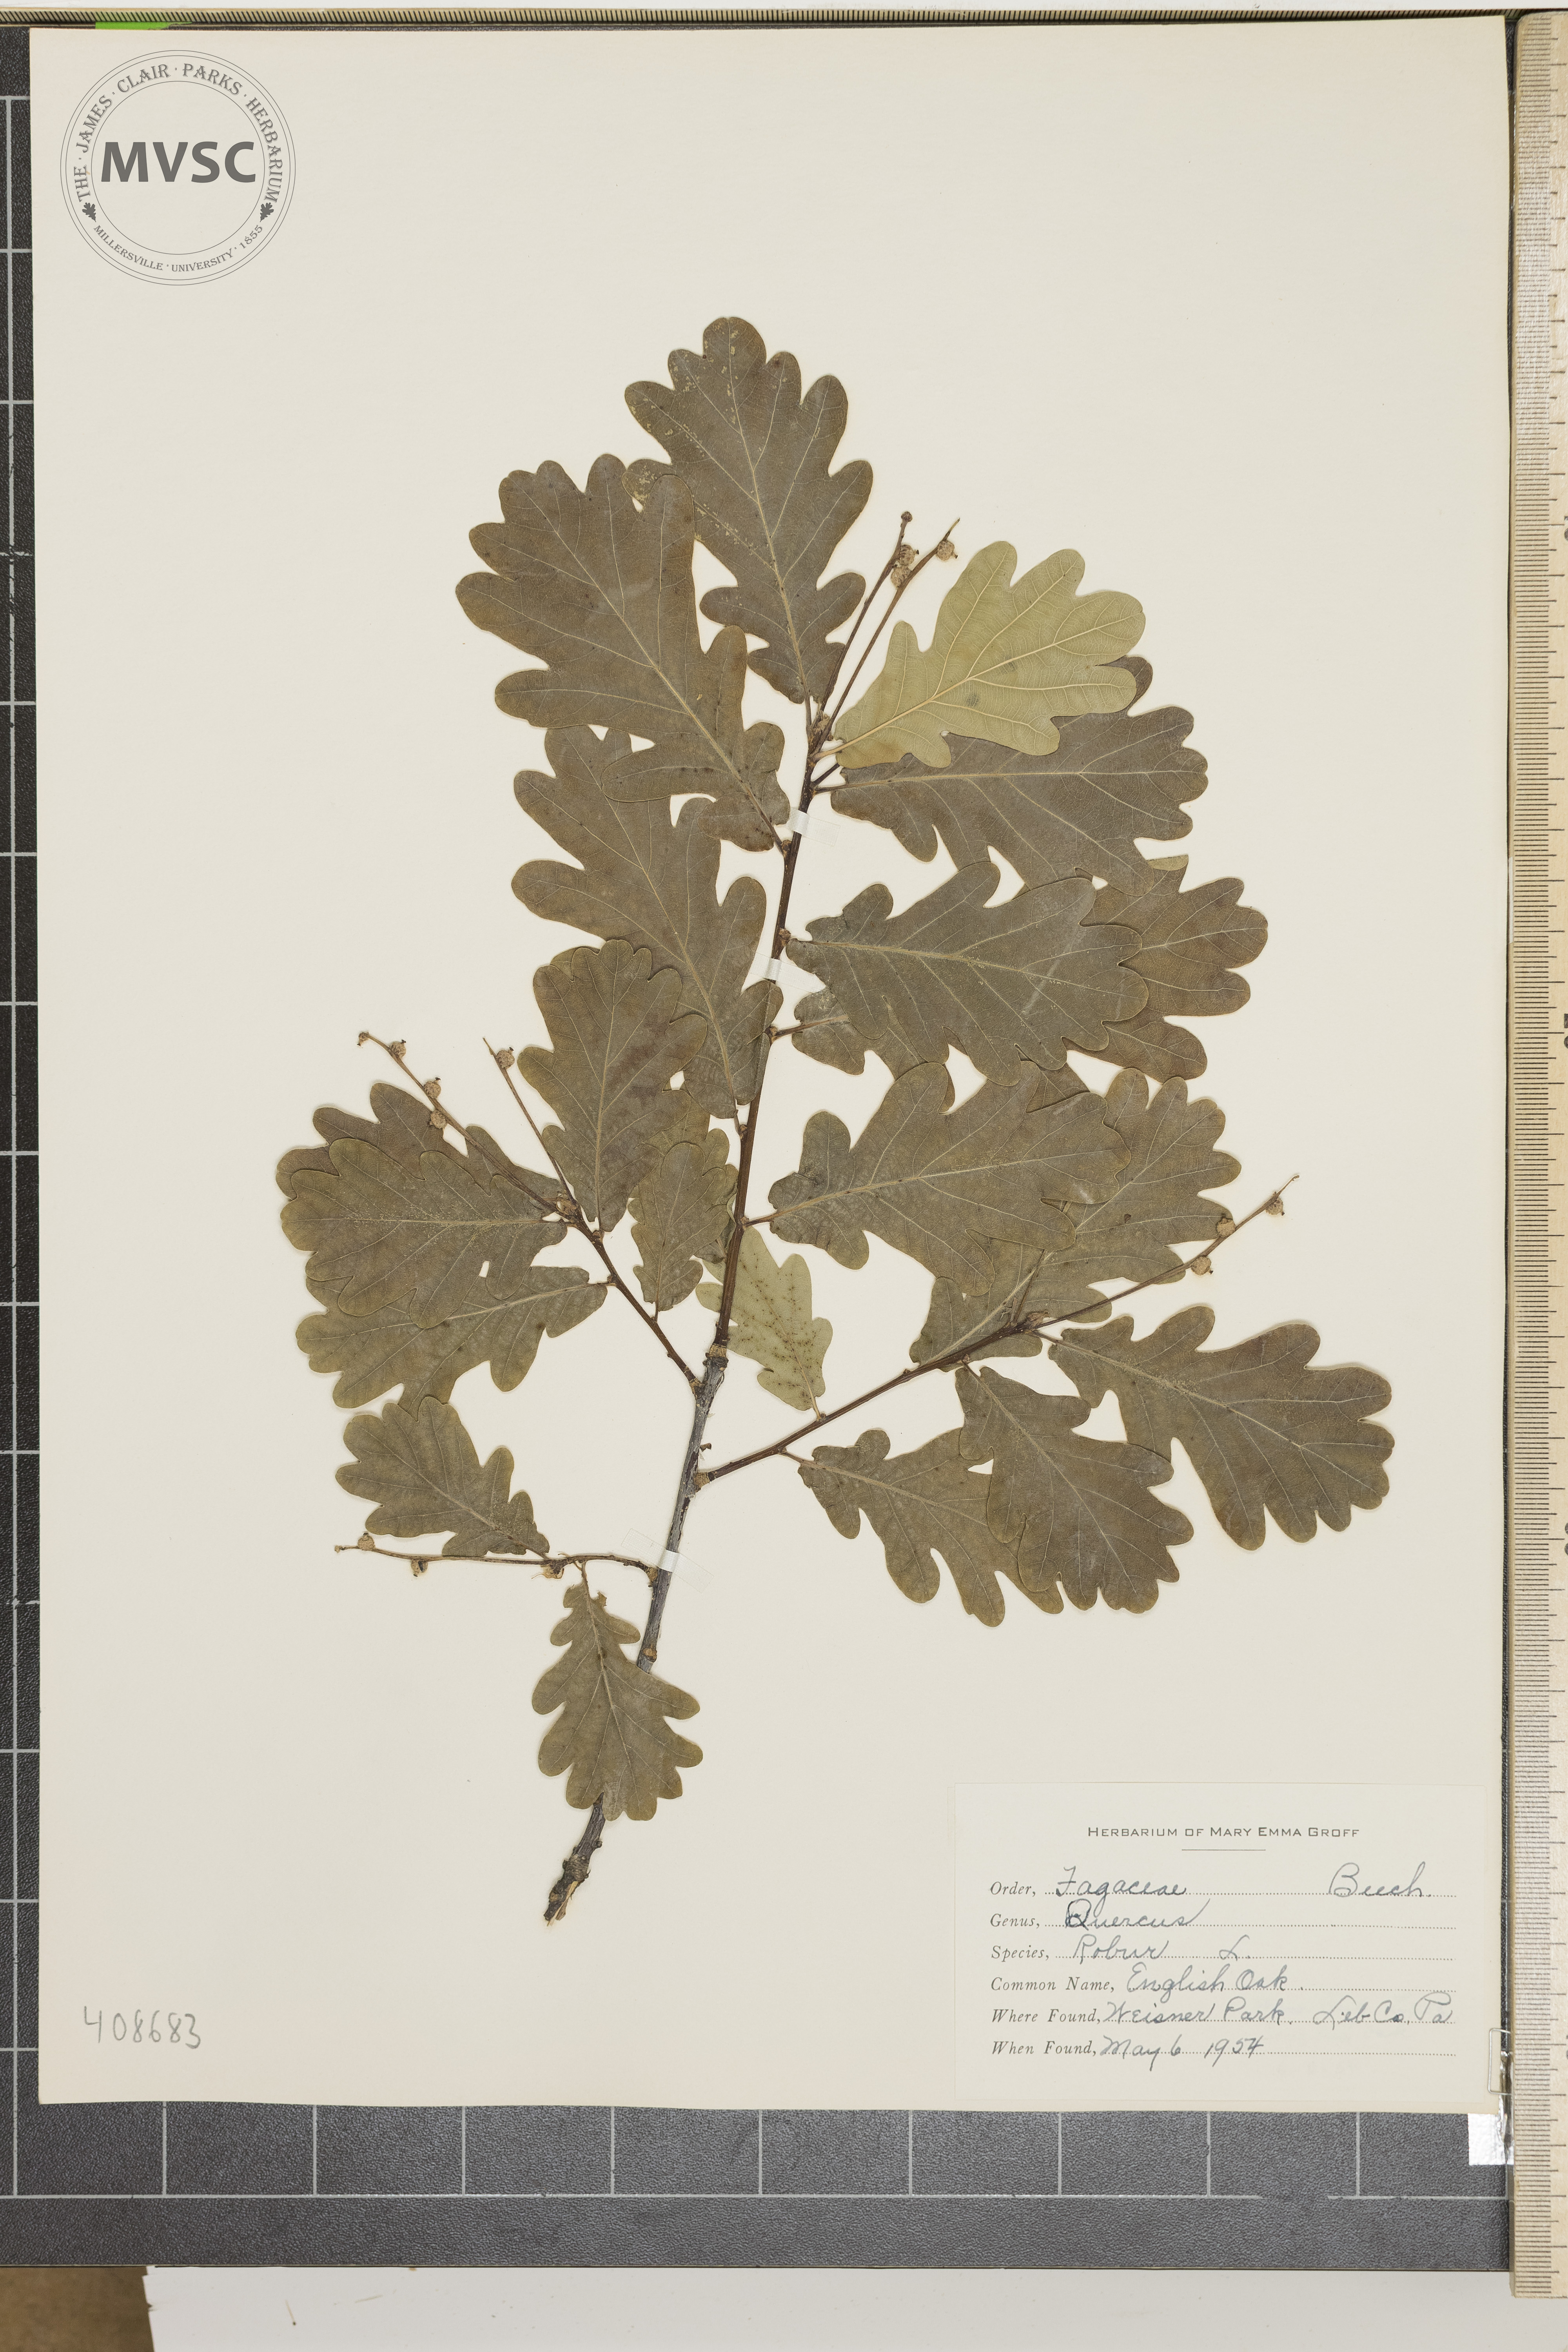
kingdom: Plantae
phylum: Tracheophyta
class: Magnoliopsida
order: Fagales
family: Fagaceae
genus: Quercus
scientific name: Quercus robur
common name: Pedunculate oak
